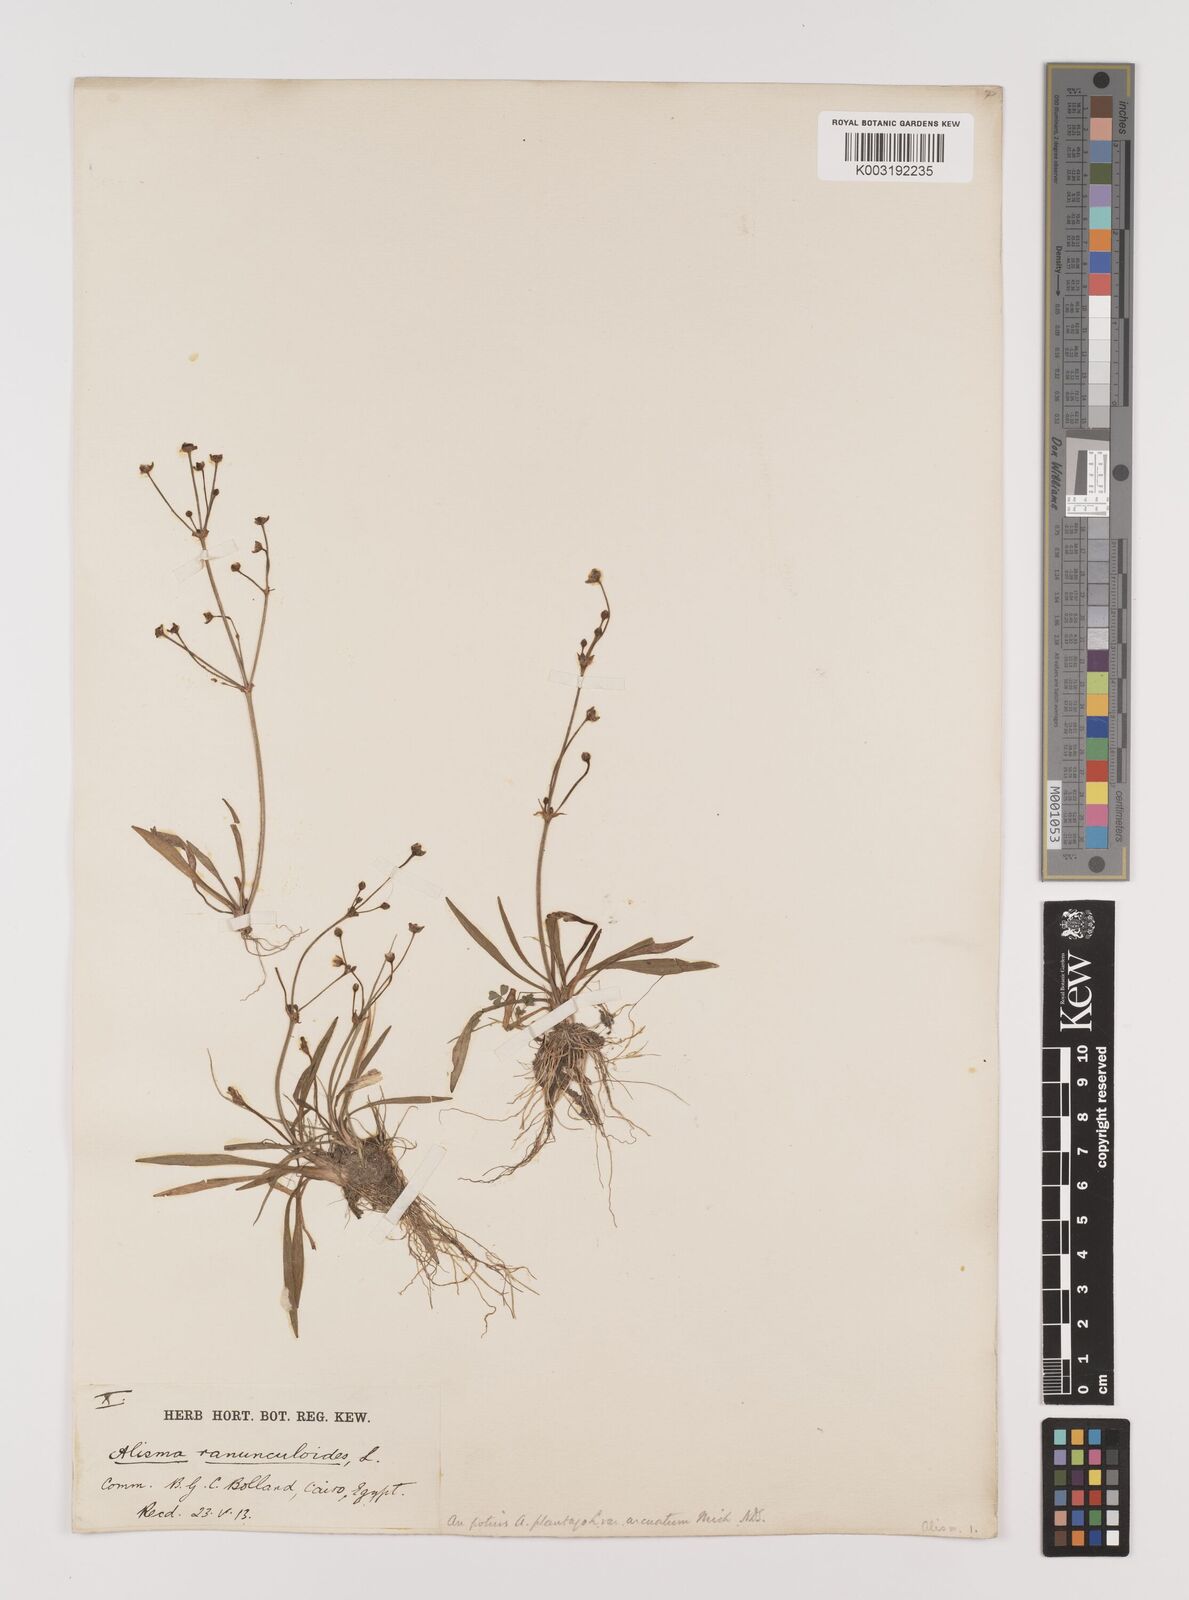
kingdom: Plantae
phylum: Tracheophyta
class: Liliopsida
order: Alismatales
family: Alismataceae
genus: Alisma
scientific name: Alisma gramineum
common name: Ribbon-leaved water-plantain
